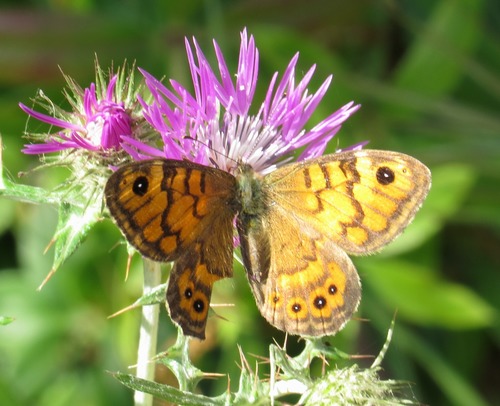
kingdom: Animalia
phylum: Arthropoda
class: Insecta
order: Lepidoptera
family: Nymphalidae
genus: Pararge
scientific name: Pararge Lasiommata megera
